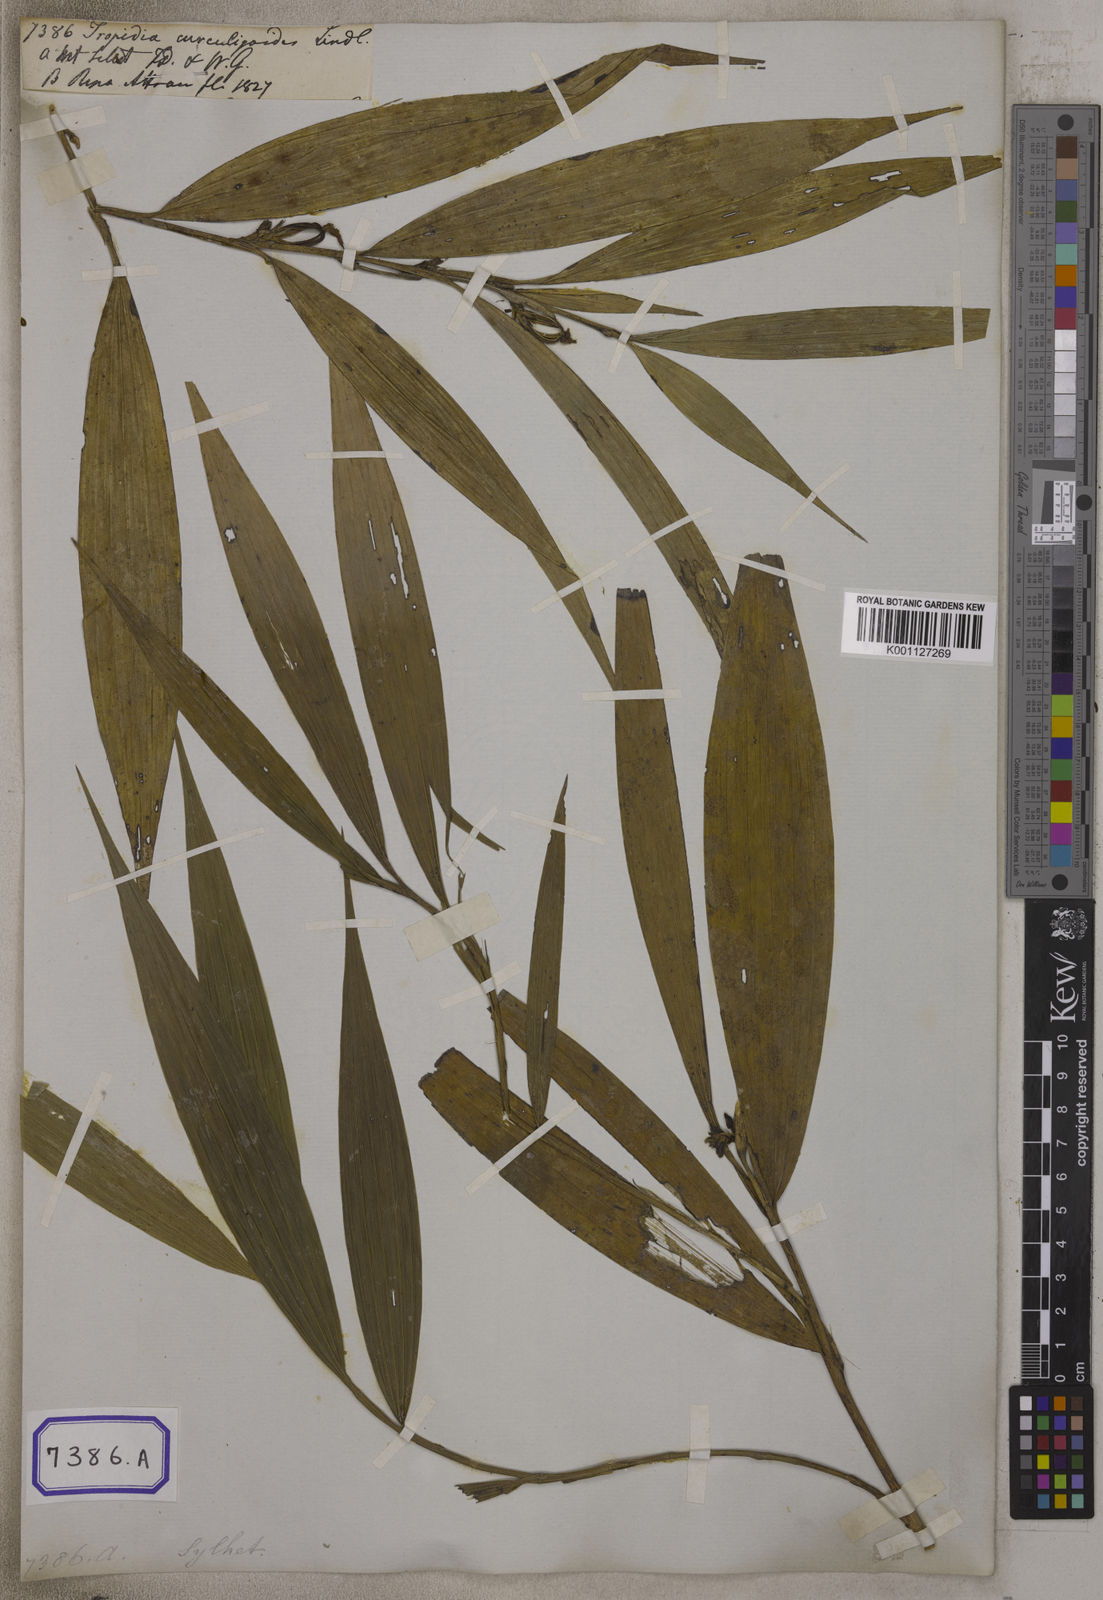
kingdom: Plantae
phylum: Tracheophyta
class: Liliopsida
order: Asparagales
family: Orchidaceae
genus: Tropidia
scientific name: Tropidia curculigoides
